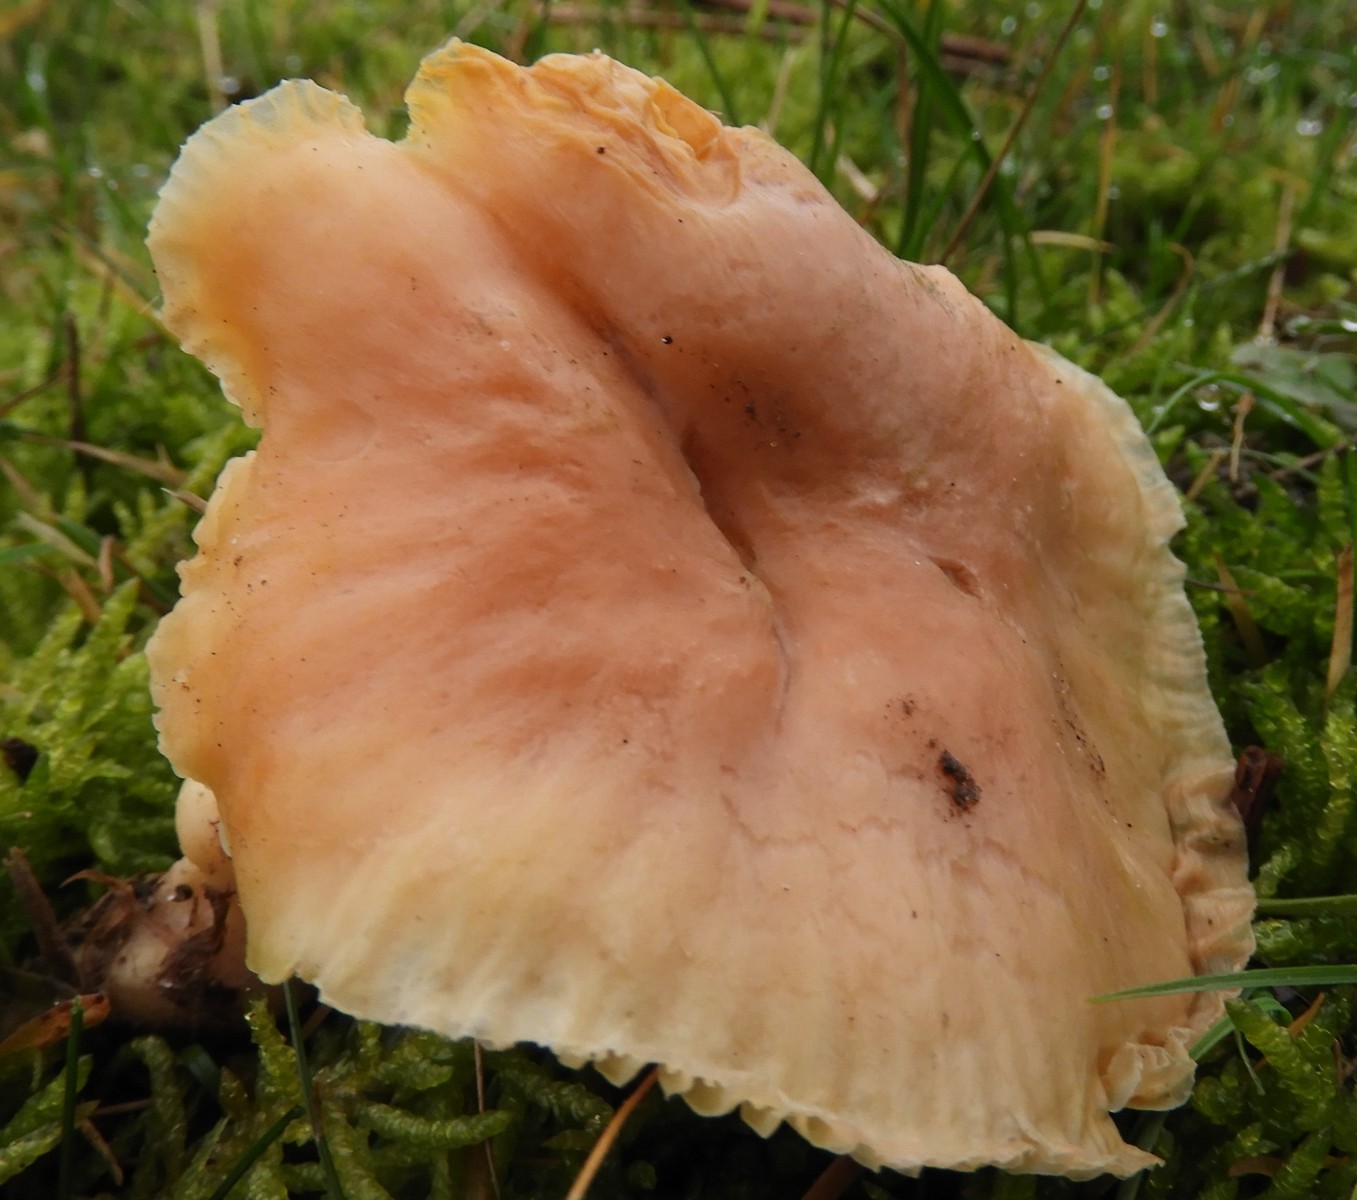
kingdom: Fungi
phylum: Basidiomycota
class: Agaricomycetes
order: Agaricales
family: Hygrophoraceae
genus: Cuphophyllus
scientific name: Cuphophyllus pratensis
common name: eng-vokshat
